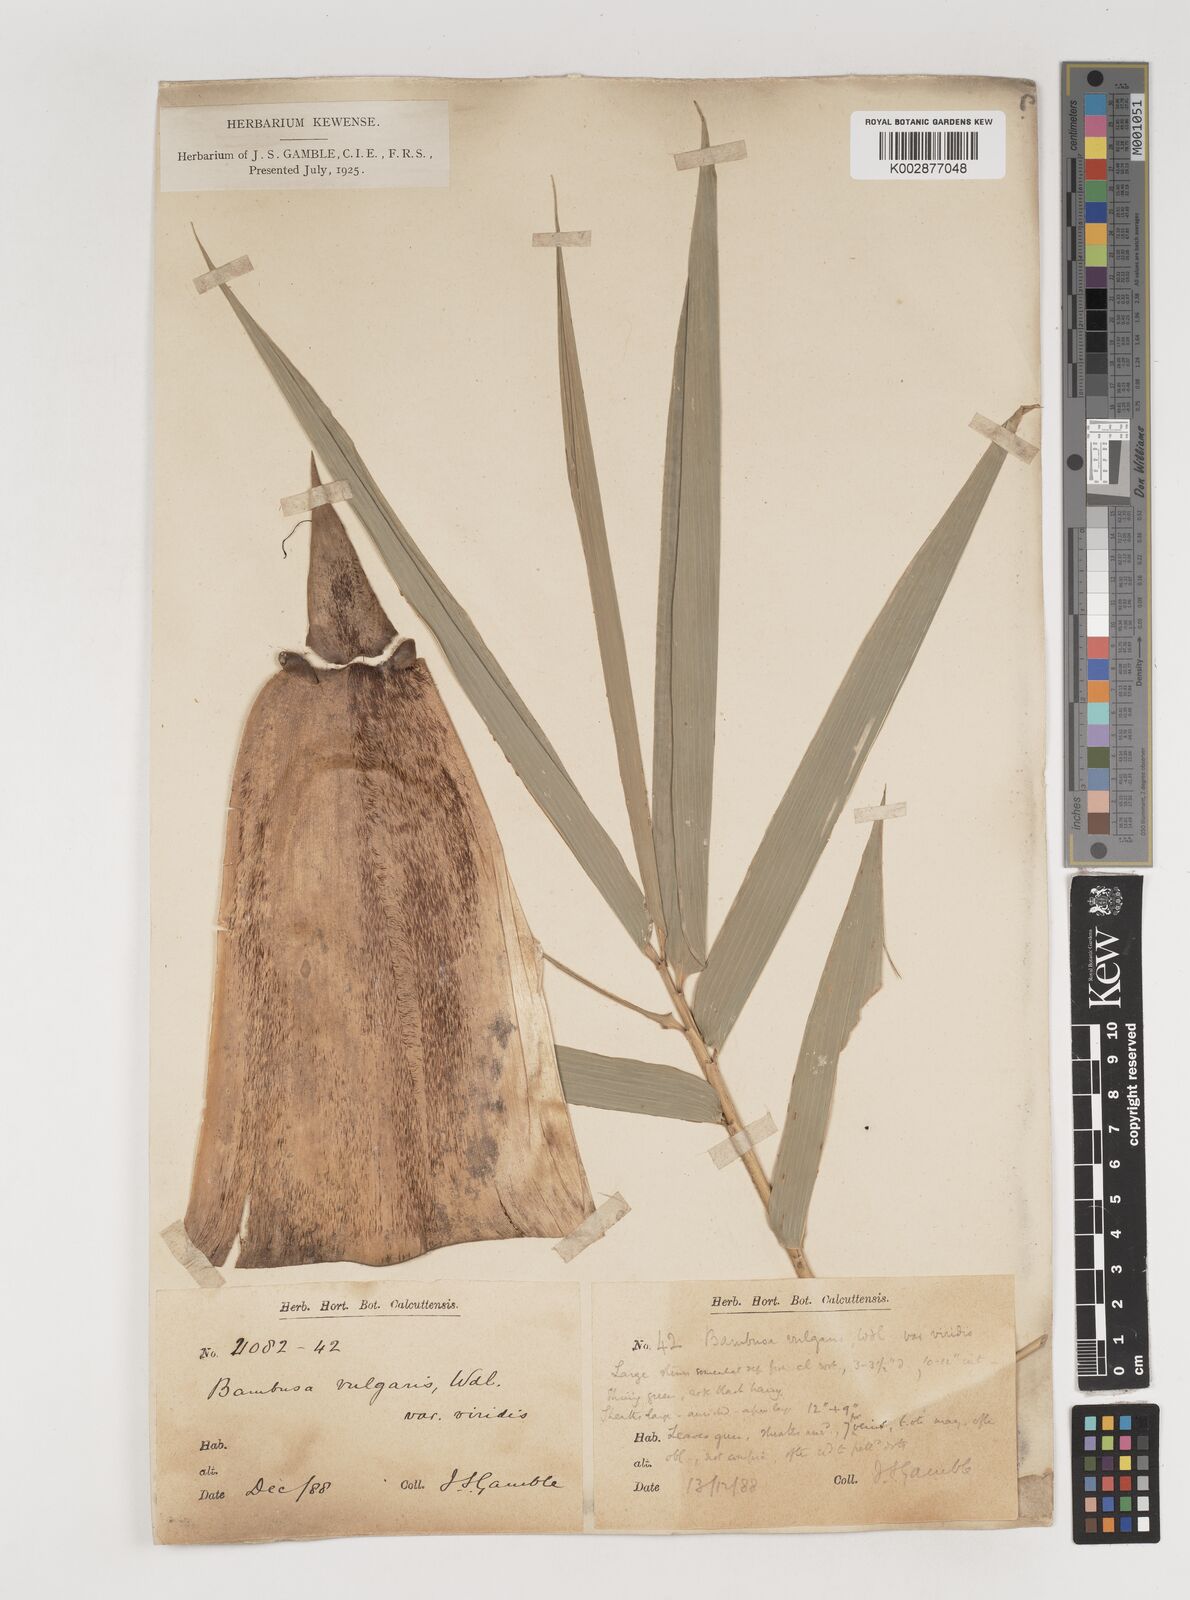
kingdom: Plantae
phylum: Tracheophyta
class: Liliopsida
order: Poales
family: Poaceae
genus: Bambusa
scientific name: Bambusa vulgaris
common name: Common bamboo
